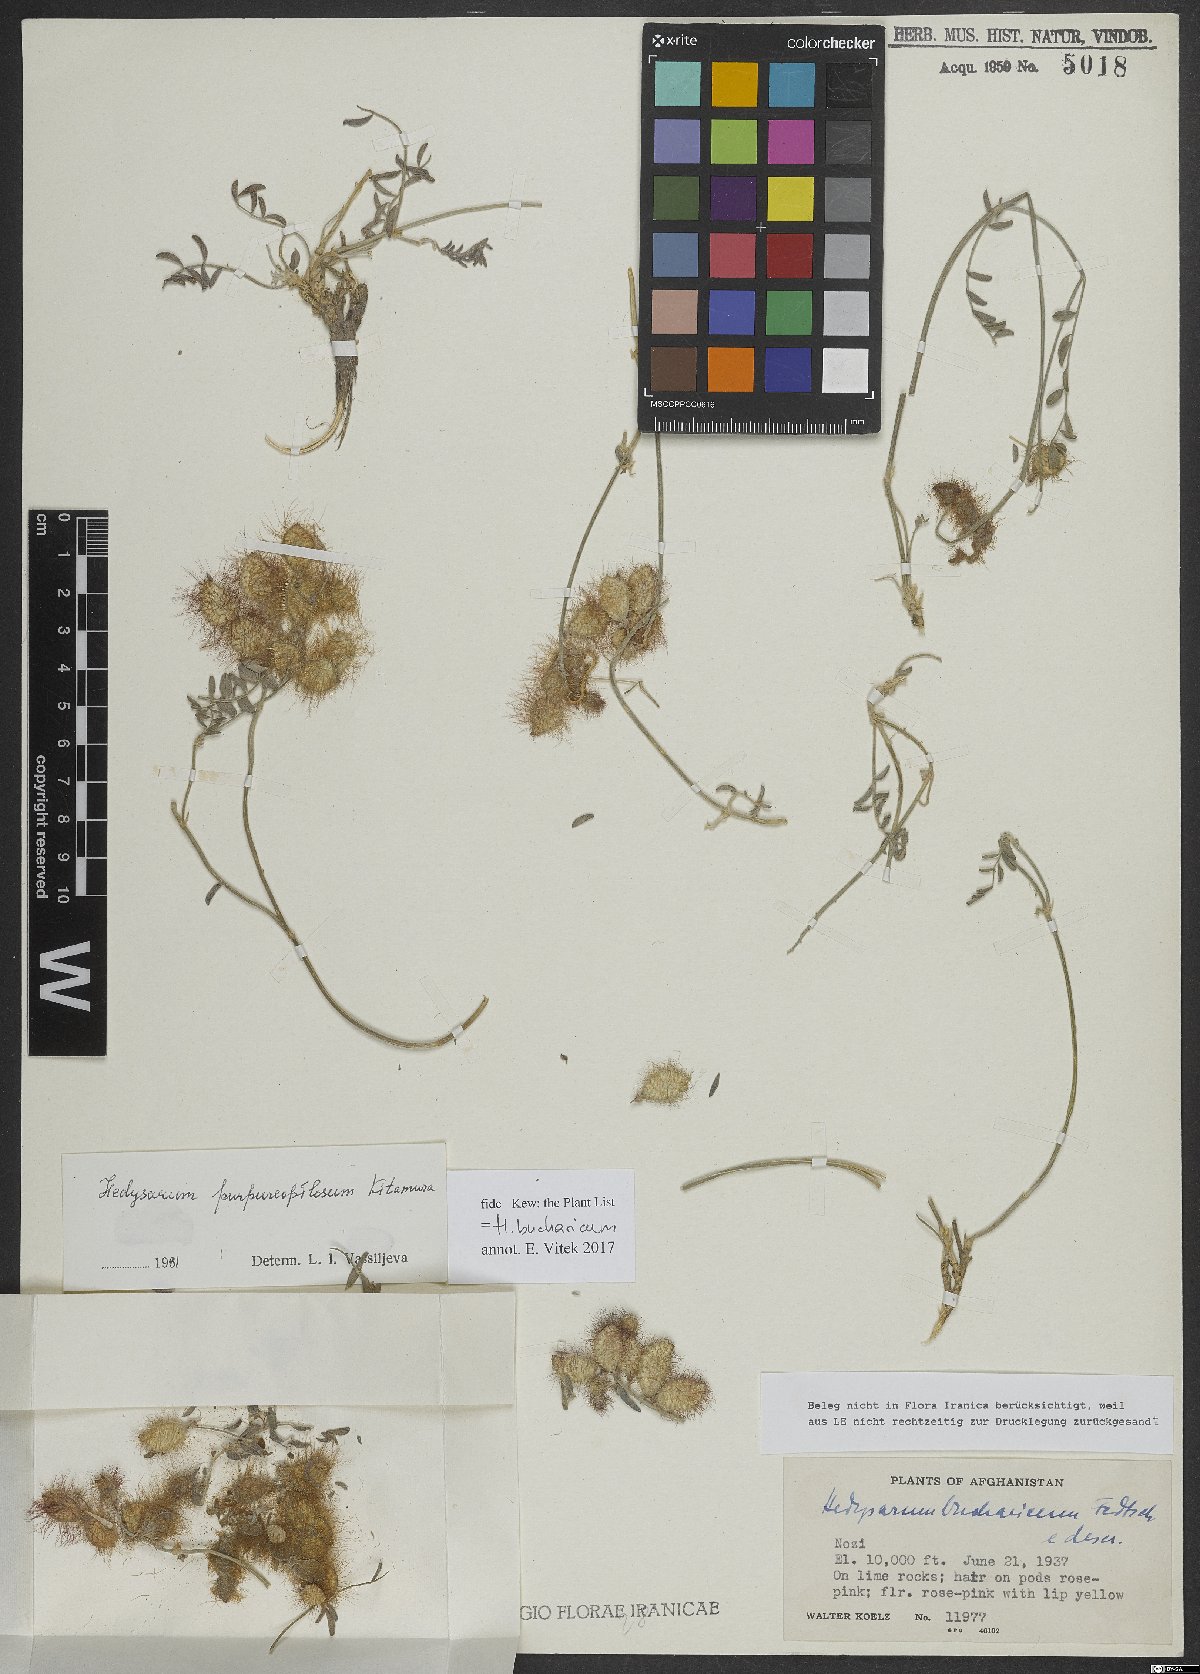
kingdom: Plantae
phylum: Tracheophyta
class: Magnoliopsida
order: Fabales
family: Fabaceae
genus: Hedysarum
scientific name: Hedysarum bucharicum
